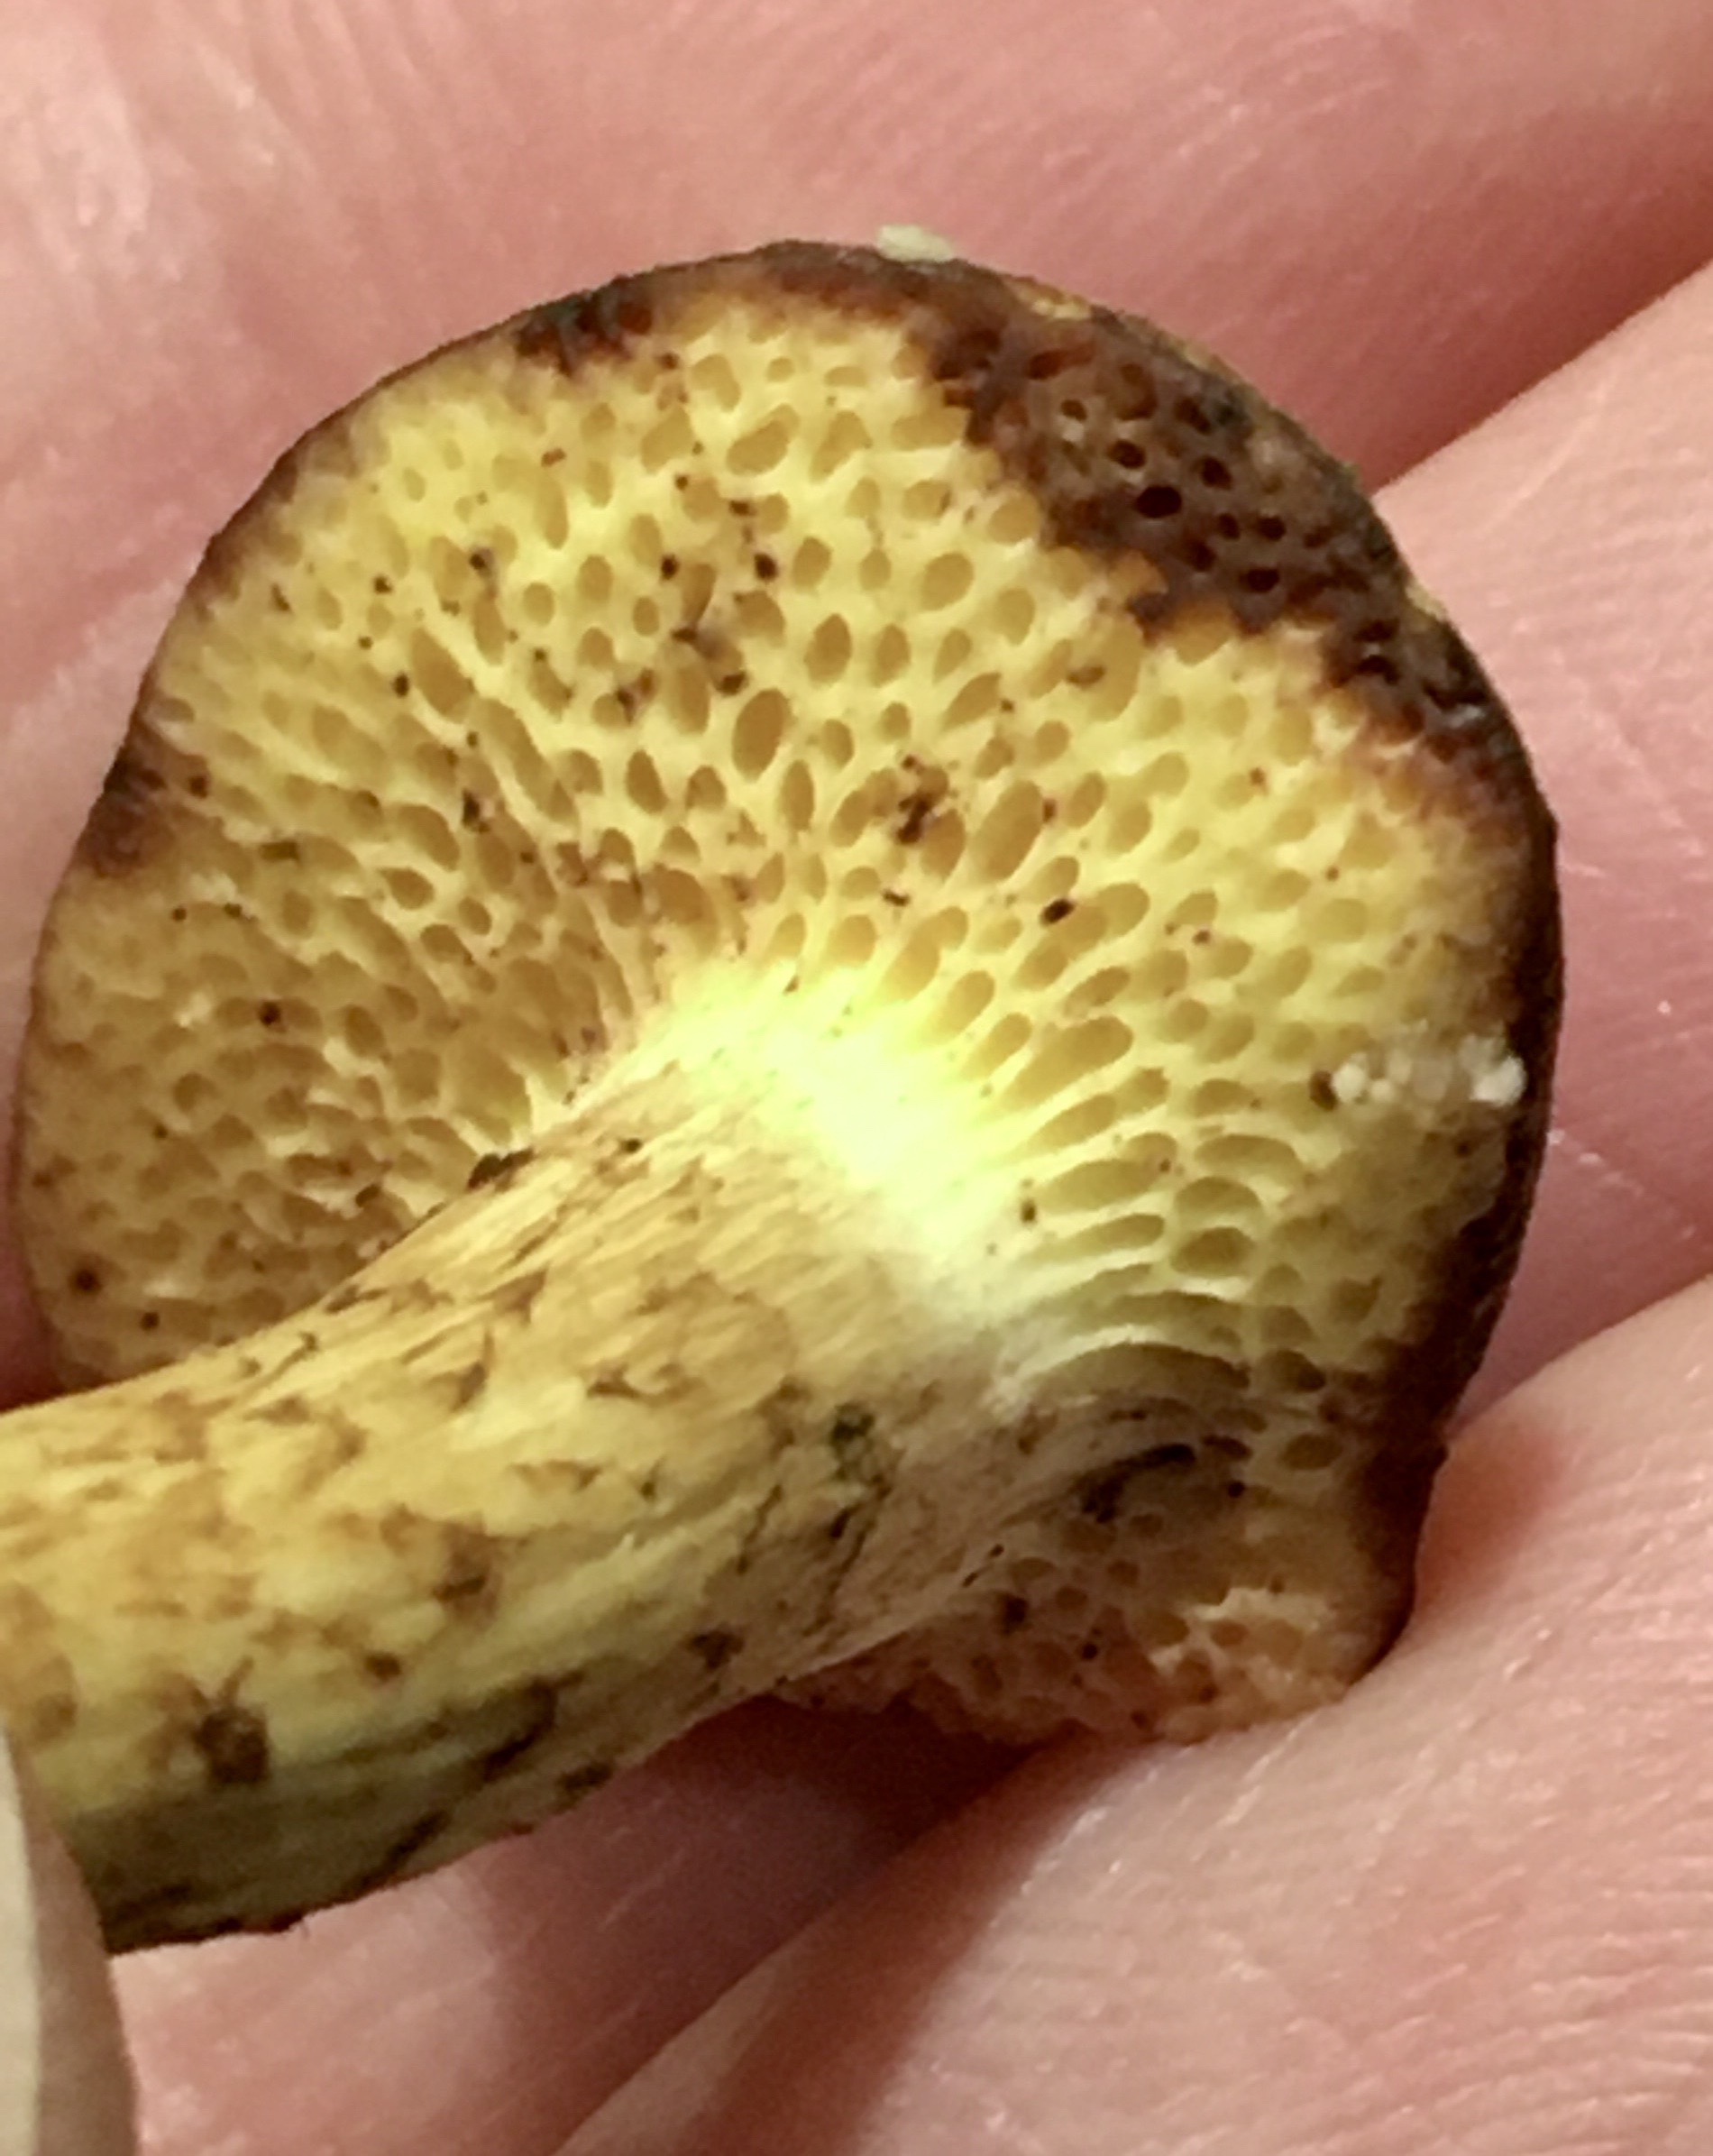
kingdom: Fungi
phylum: Basidiomycota
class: Agaricomycetes
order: Boletales
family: Boletaceae
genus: Pseudoboletus
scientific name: Pseudoboletus parasiticus
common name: snyltende rørhat
